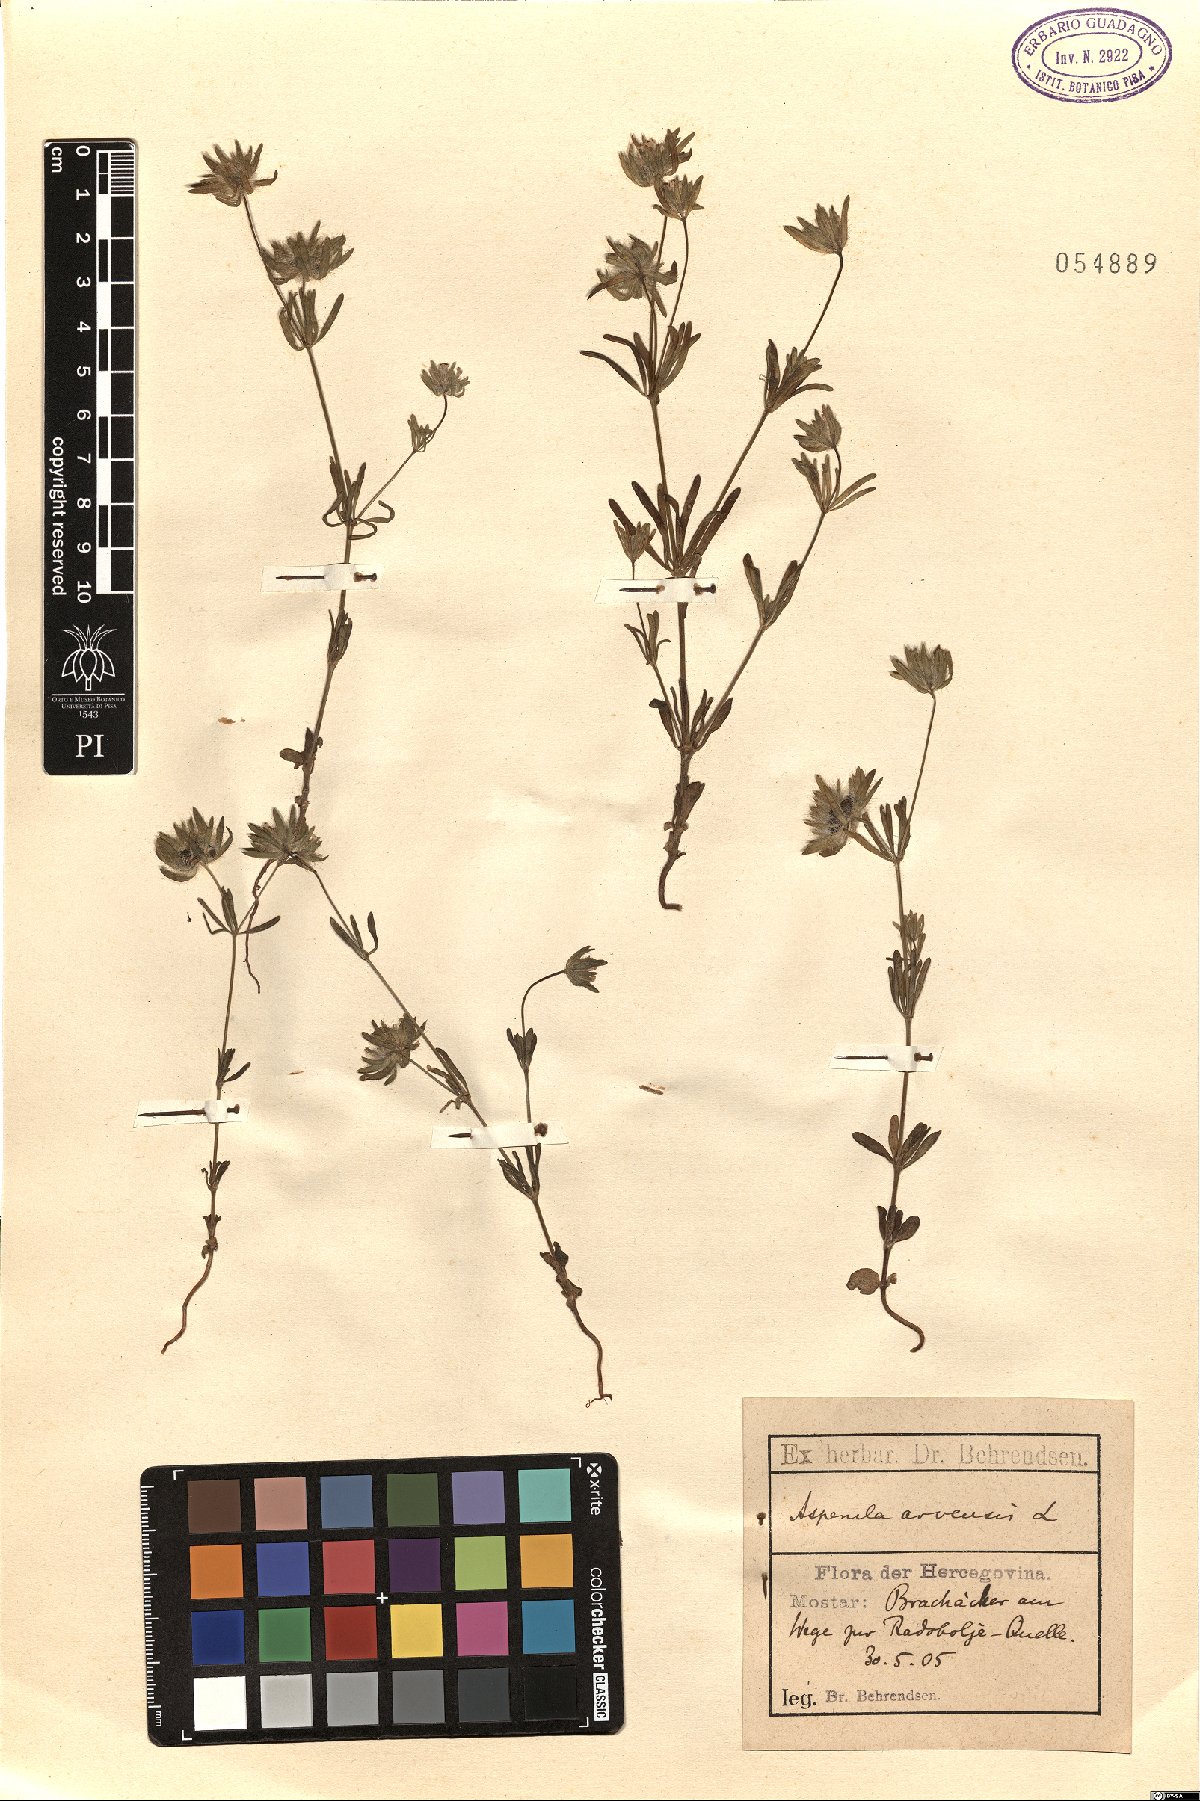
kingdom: Plantae
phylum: Tracheophyta
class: Magnoliopsida
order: Gentianales
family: Rubiaceae
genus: Asperula
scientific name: Asperula arvensis
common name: Blue woodruff
